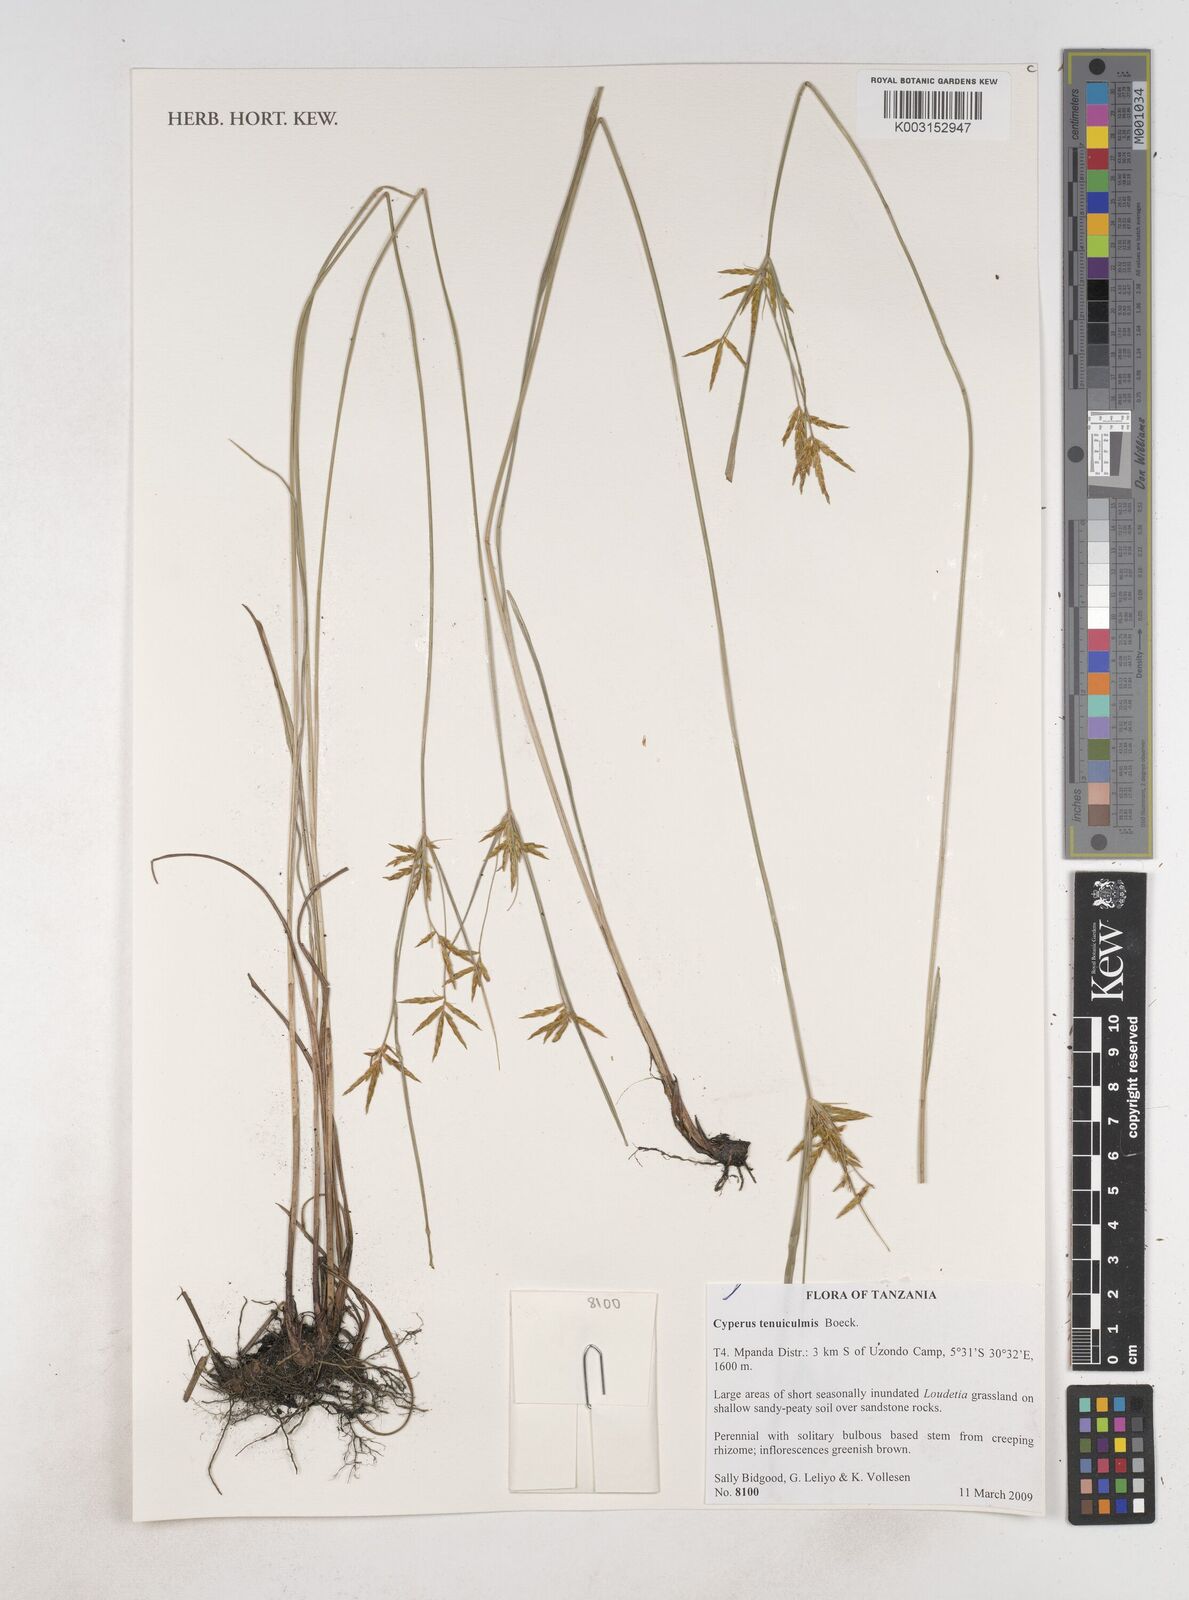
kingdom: Plantae
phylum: Tracheophyta
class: Liliopsida
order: Poales
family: Cyperaceae
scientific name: Cyperaceae
